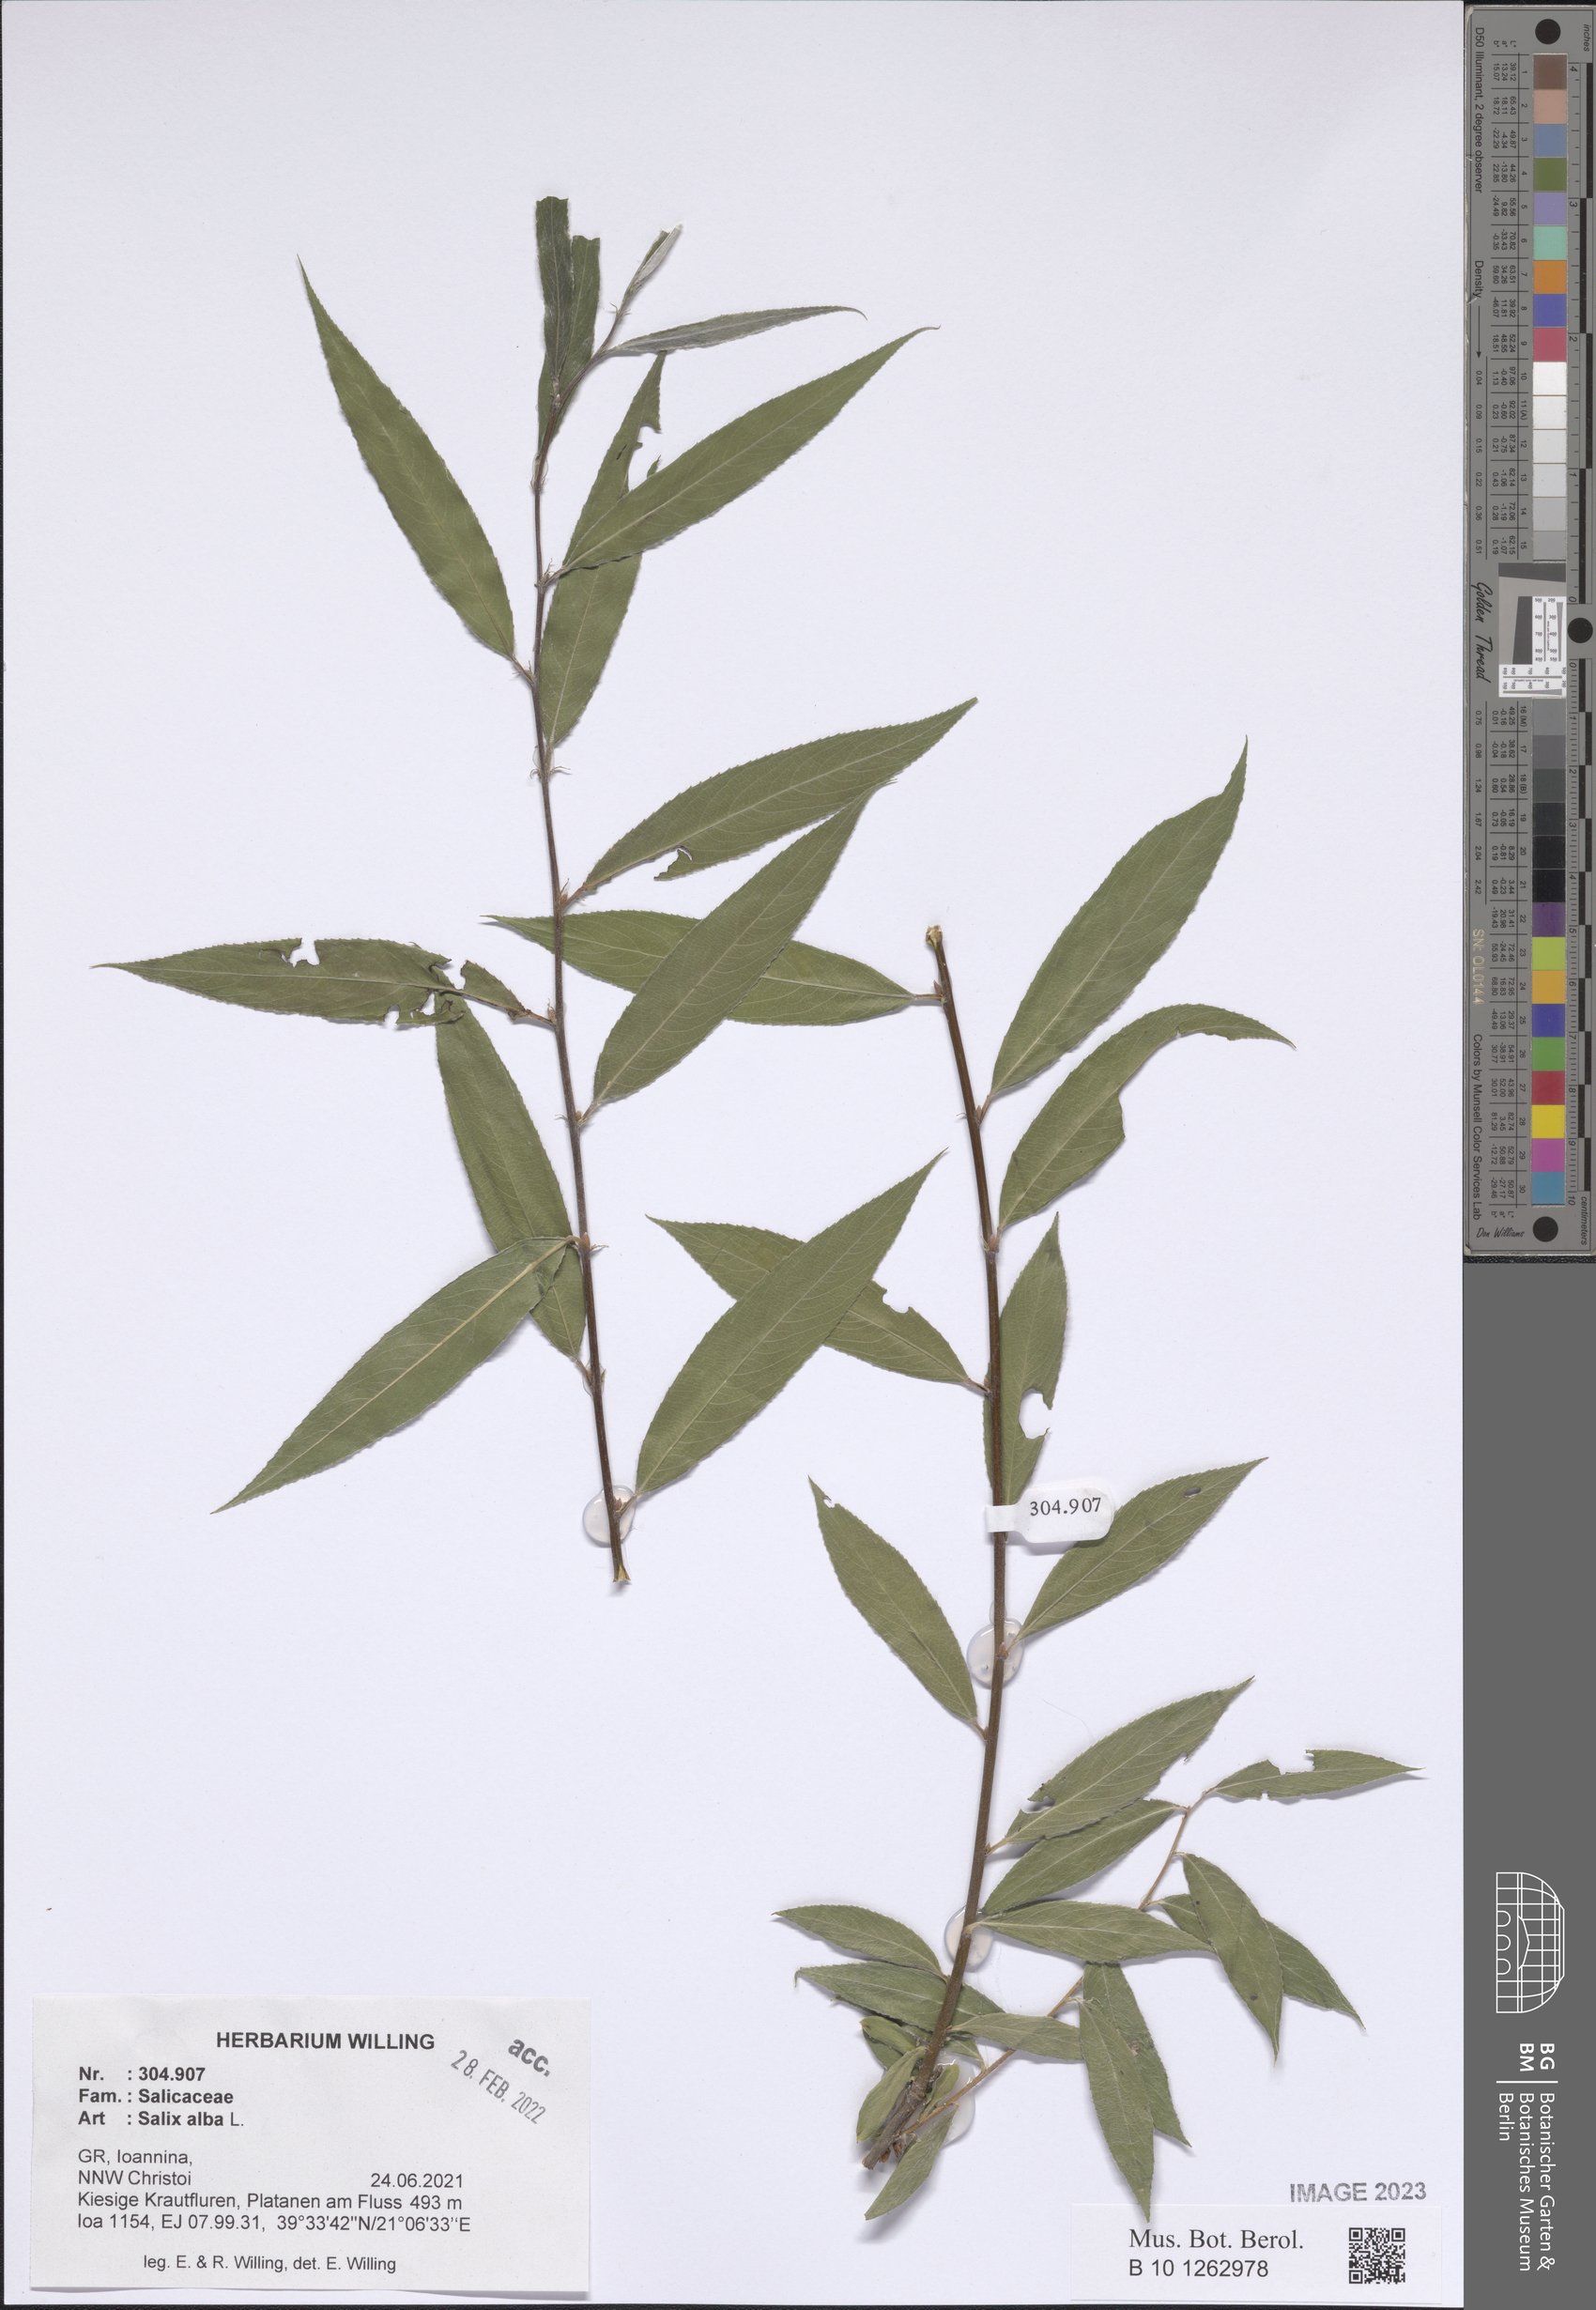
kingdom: Plantae
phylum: Tracheophyta
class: Magnoliopsida
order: Malpighiales
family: Salicaceae
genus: Salix
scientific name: Salix alba
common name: White willow
